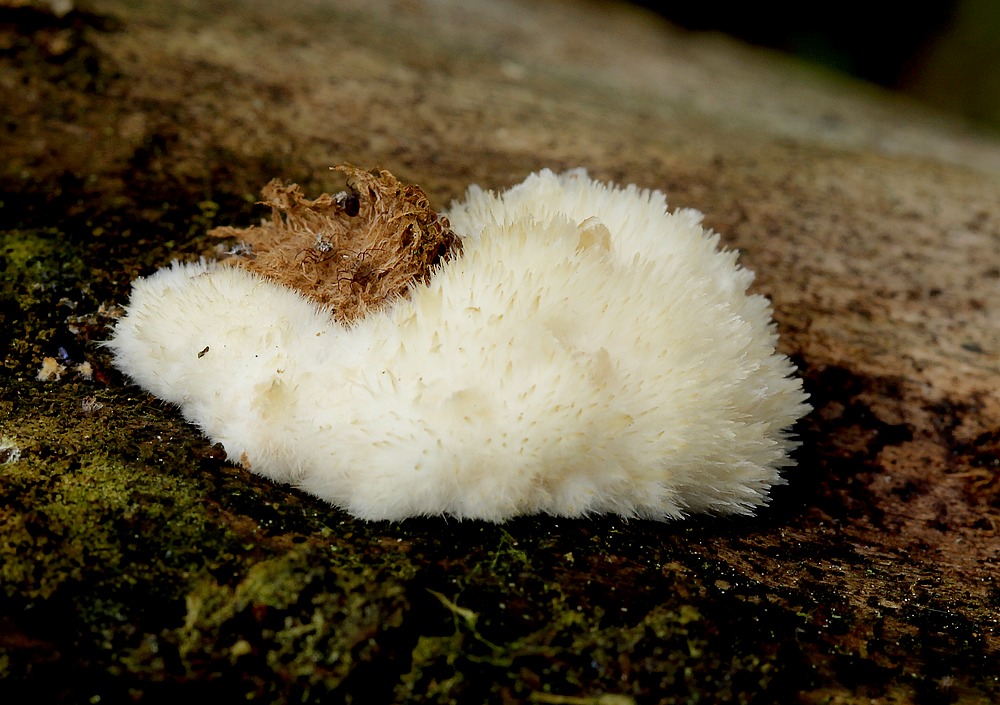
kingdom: Fungi
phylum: Basidiomycota
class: Agaricomycetes
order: Polyporales
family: Dacryobolaceae
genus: Postia
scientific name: Postia ptychogaster
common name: støvende kødporesvamp
